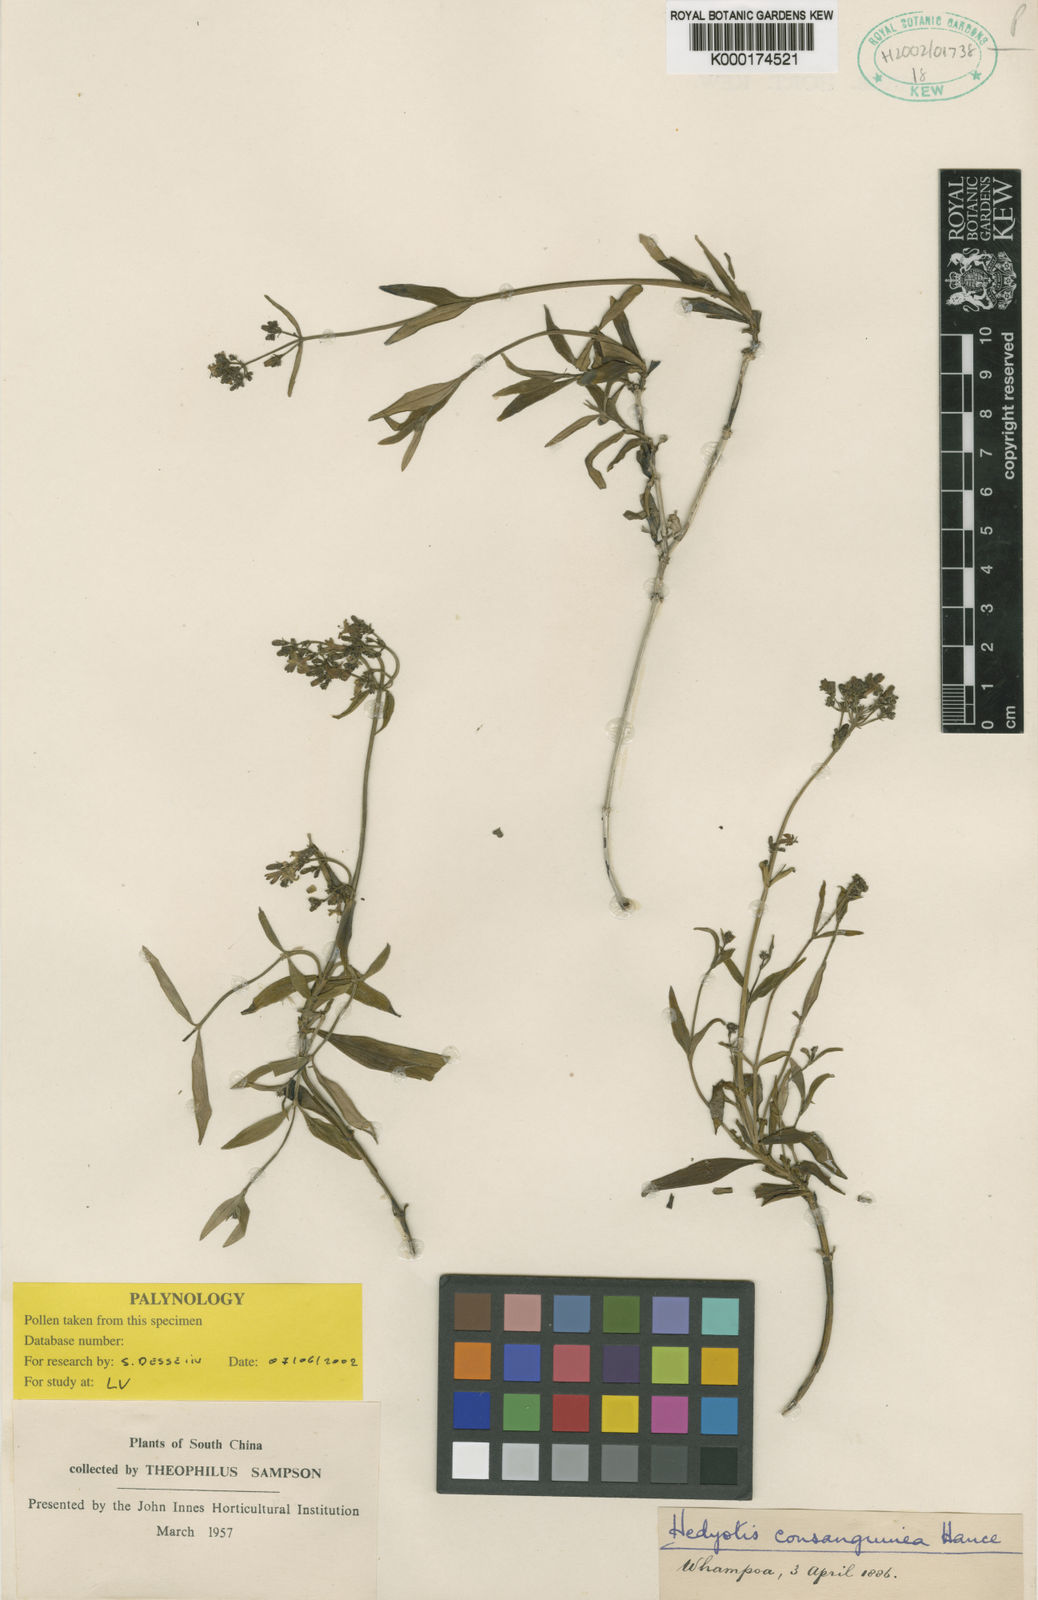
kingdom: Plantae
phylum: Tracheophyta
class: Magnoliopsida
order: Gentianales
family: Rubiaceae
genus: Hedyotis
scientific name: Hedyotis lancea
